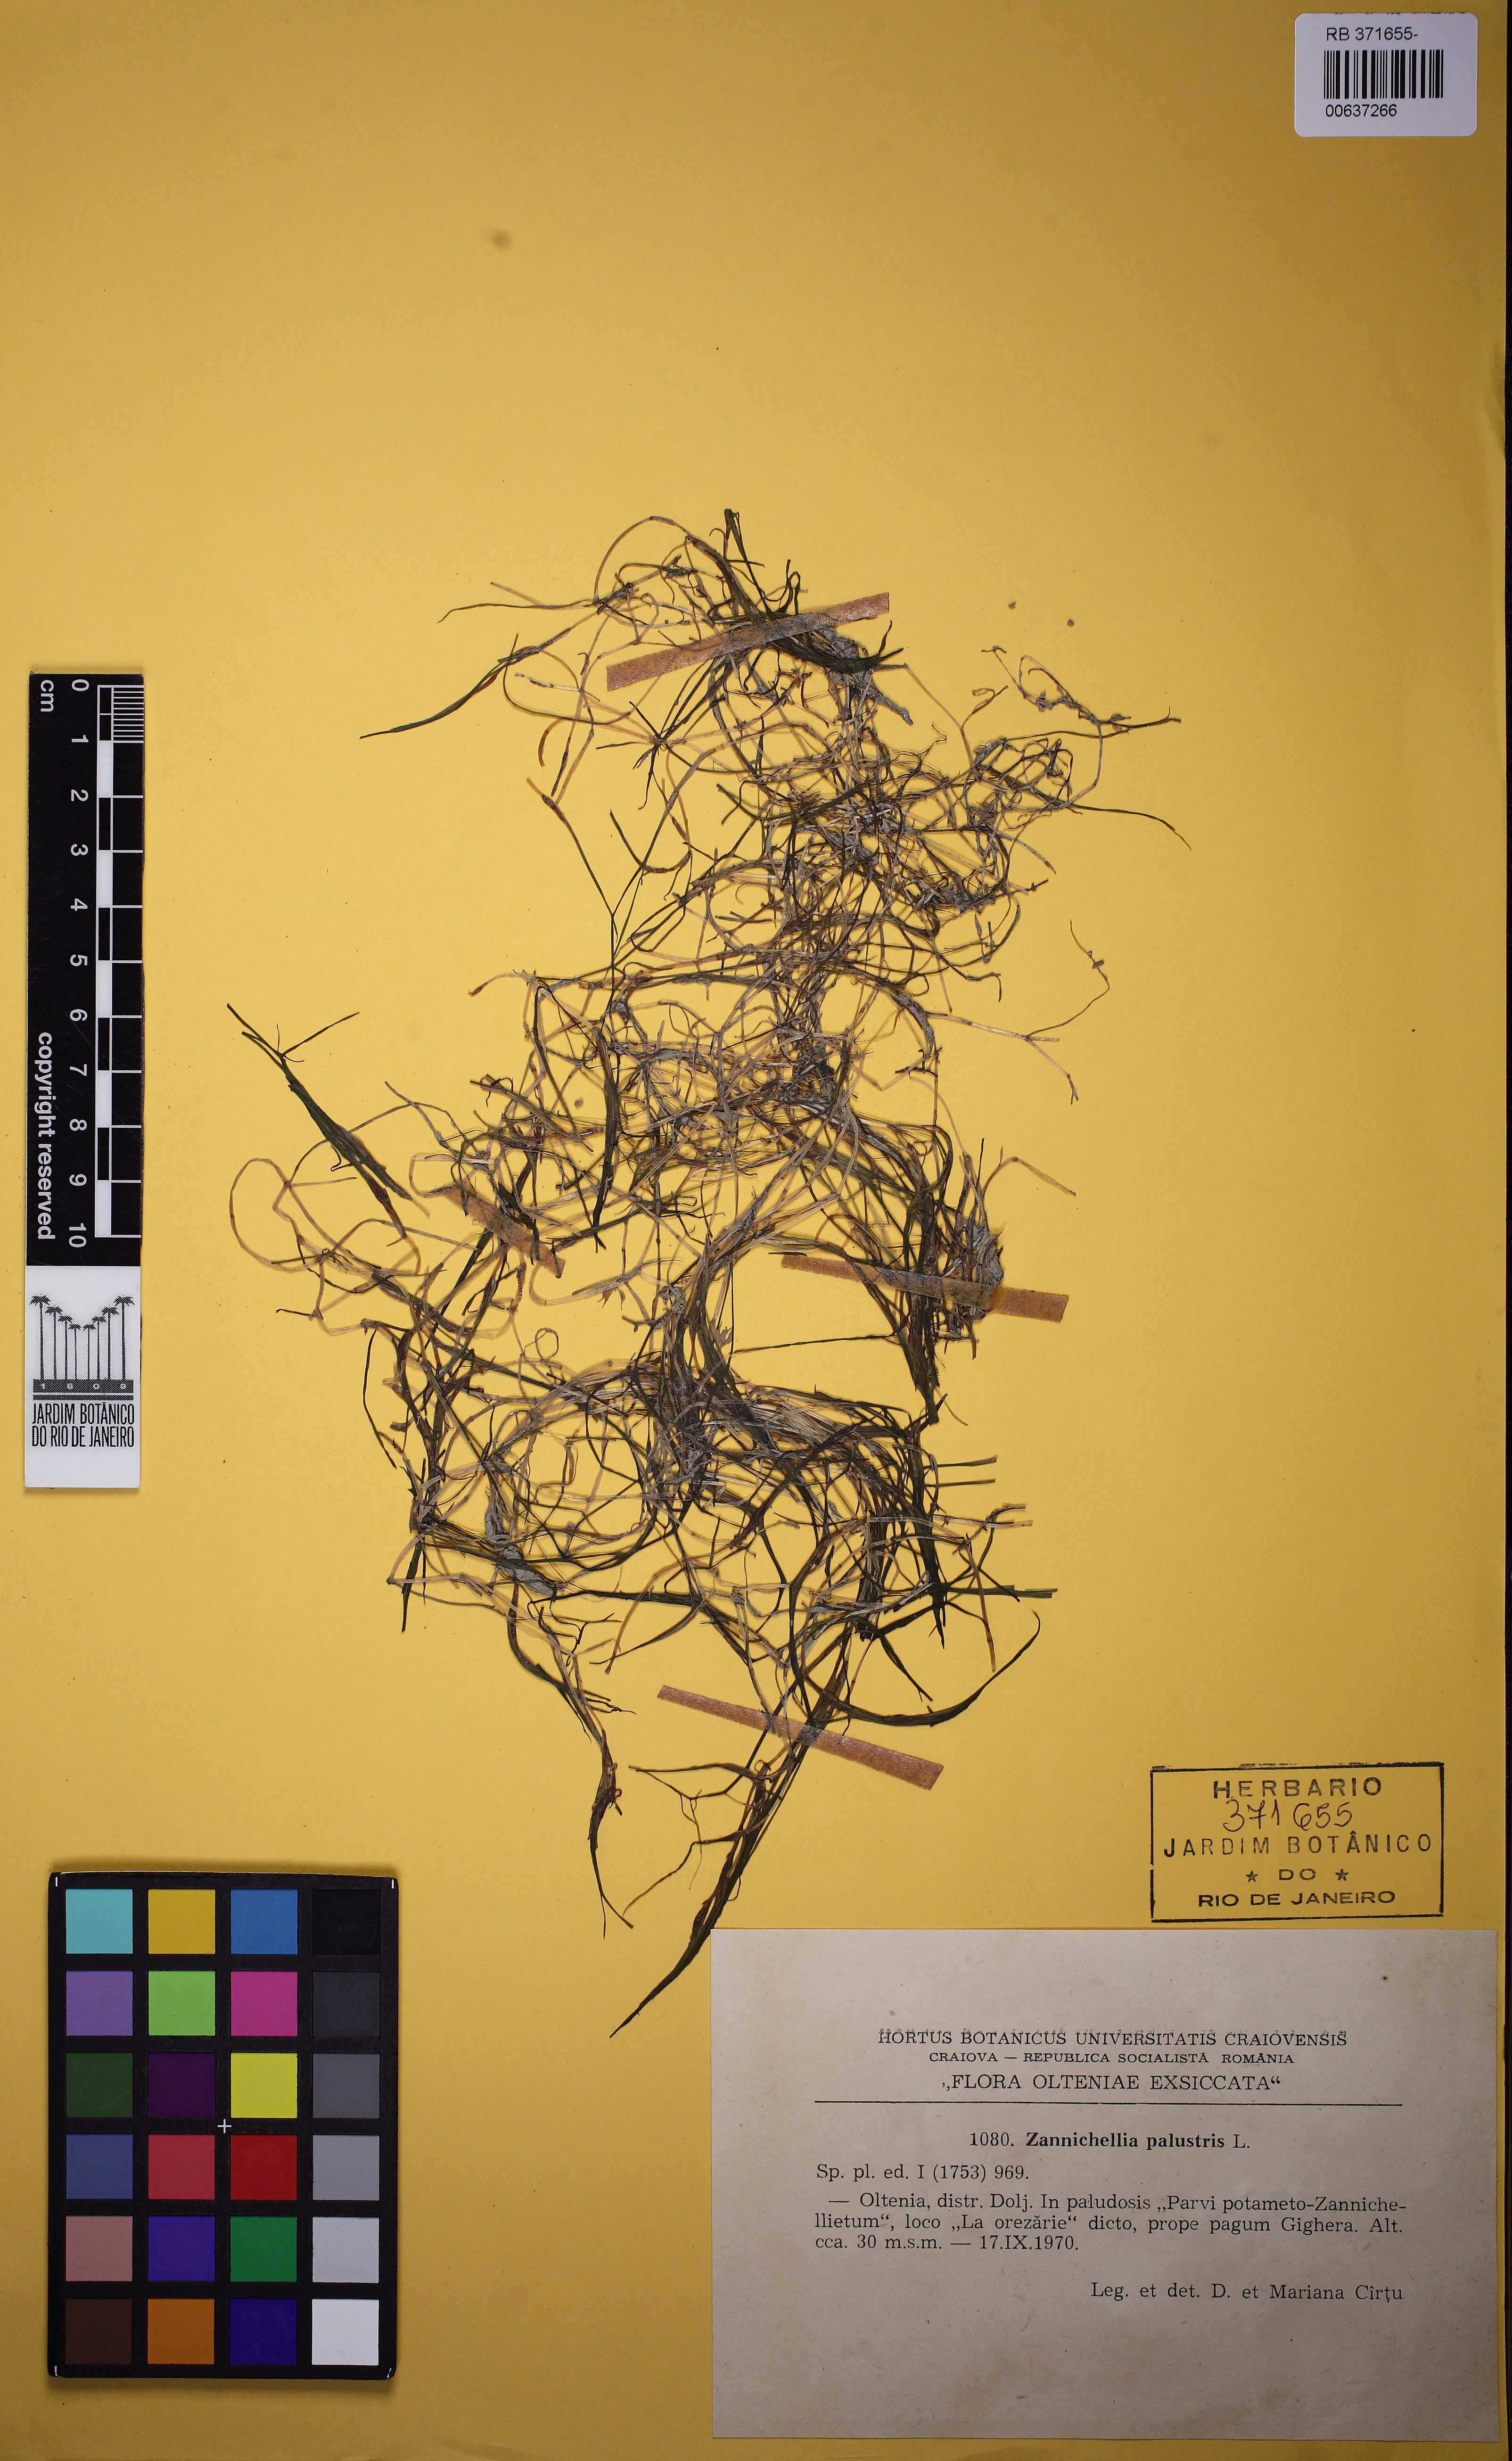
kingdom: Plantae
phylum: Tracheophyta
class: Liliopsida
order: Alismatales
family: Potamogetonaceae
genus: Zannichellia
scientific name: Zannichellia palustris
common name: Horned pondweed
